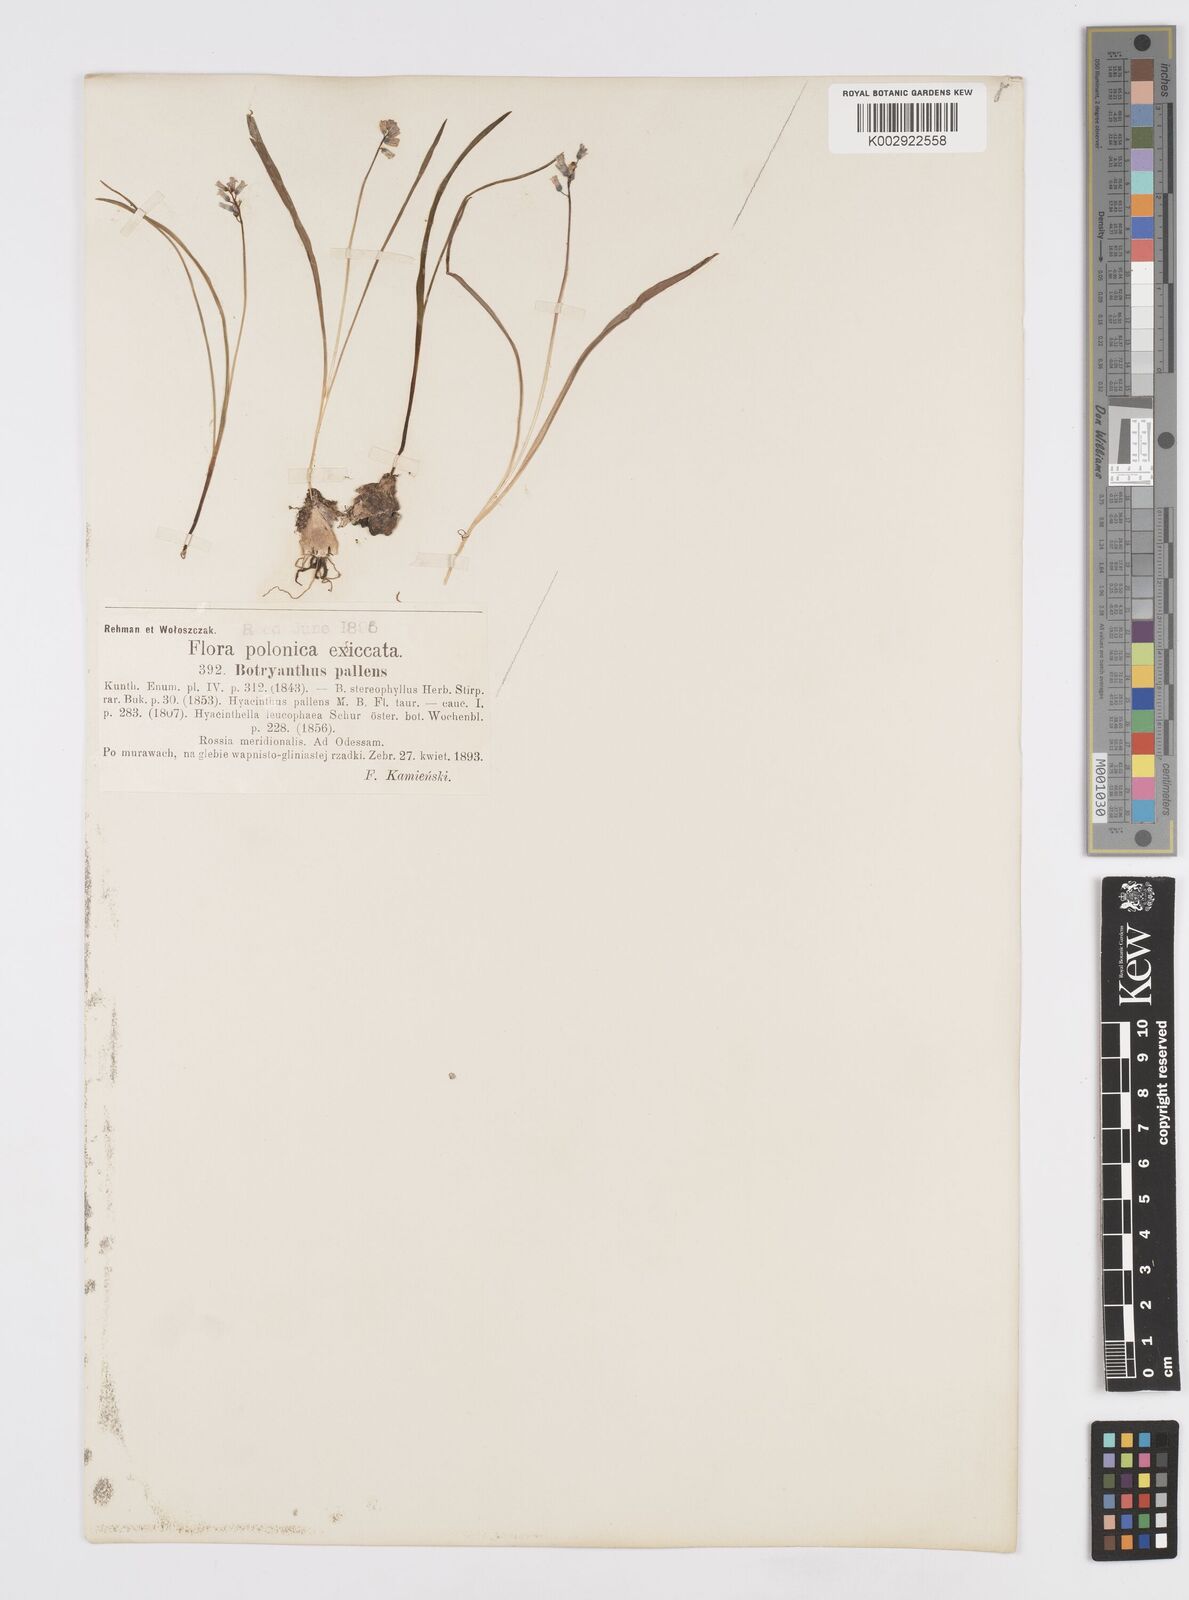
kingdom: Plantae
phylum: Tracheophyta
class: Liliopsida
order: Asparagales
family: Asparagaceae
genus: Hyacinthella
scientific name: Hyacinthella leucophaea
